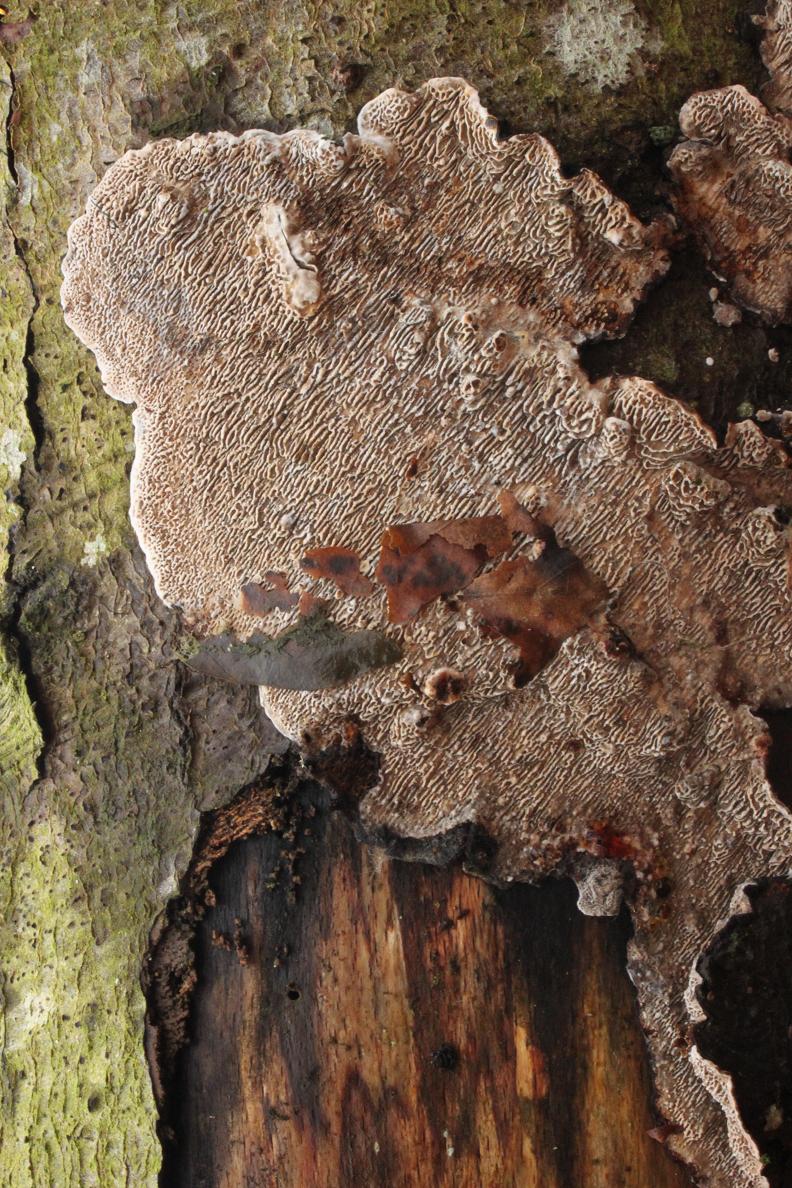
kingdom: Fungi
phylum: Basidiomycota
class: Agaricomycetes
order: Polyporales
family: Polyporaceae
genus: Podofomes
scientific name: Podofomes mollis
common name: blød begporesvamp
